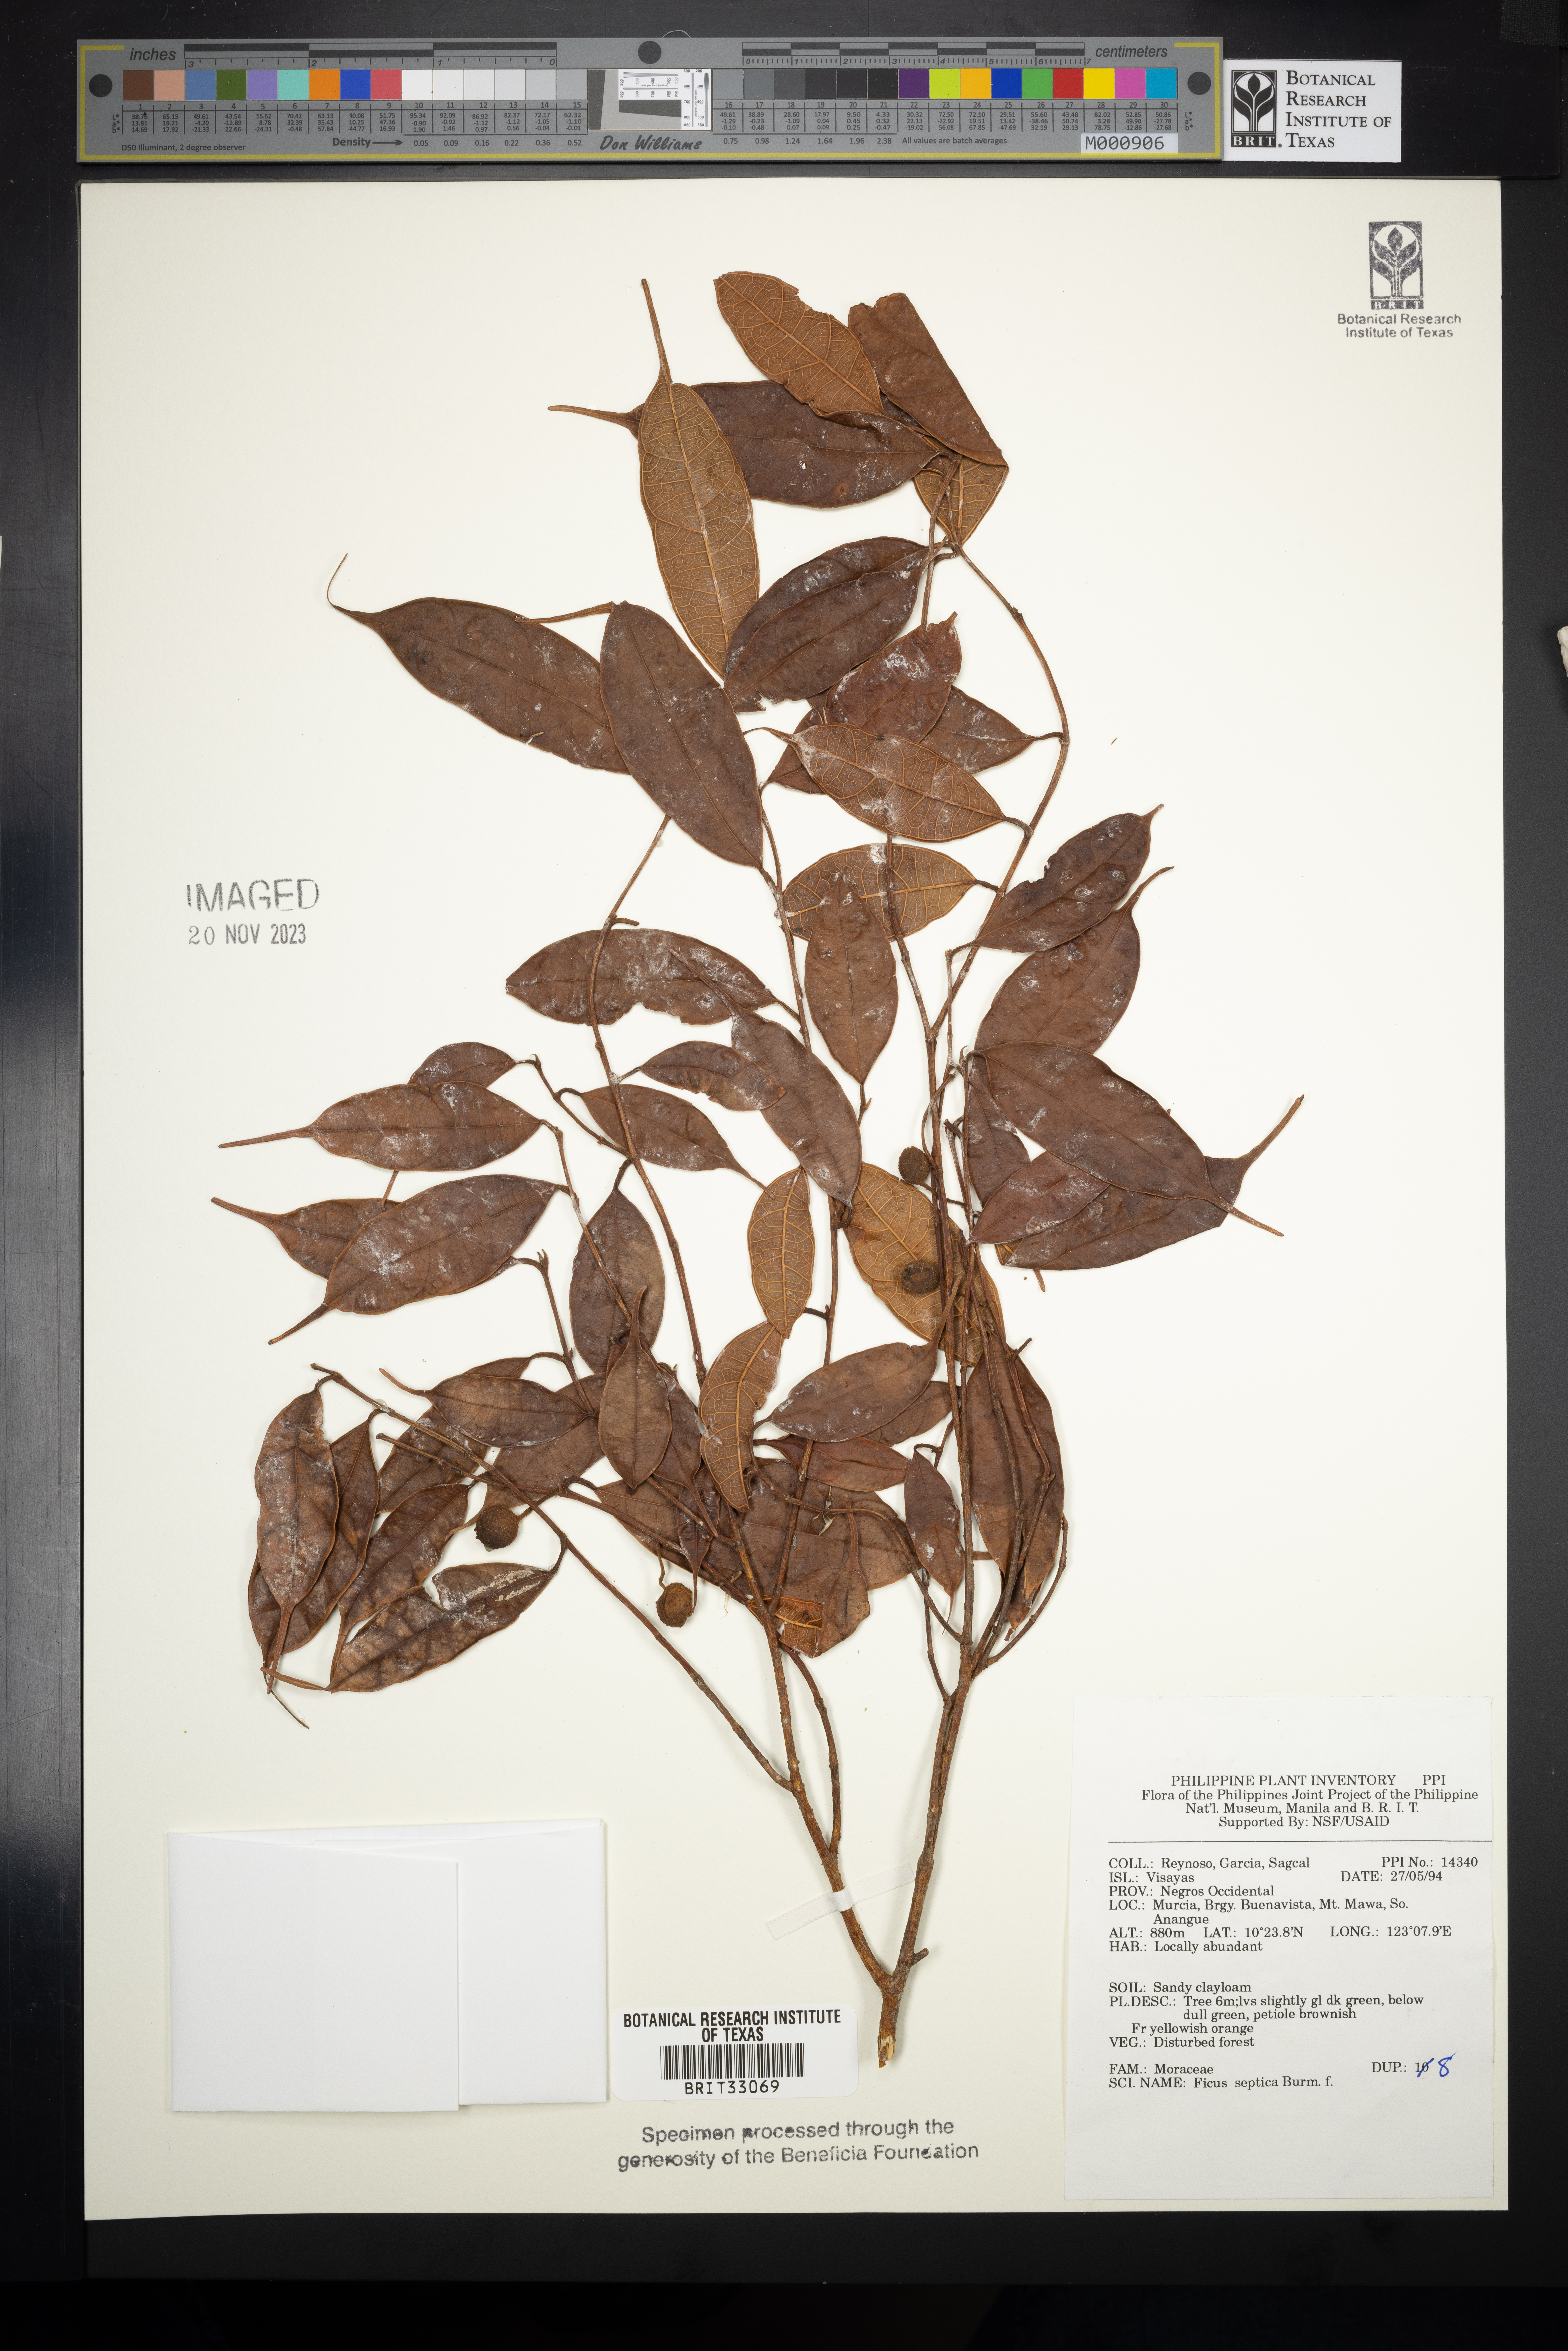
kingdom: Plantae
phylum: Tracheophyta
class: Magnoliopsida
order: Rosales
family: Moraceae
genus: Ficus
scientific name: Ficus septica
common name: Septic fig
